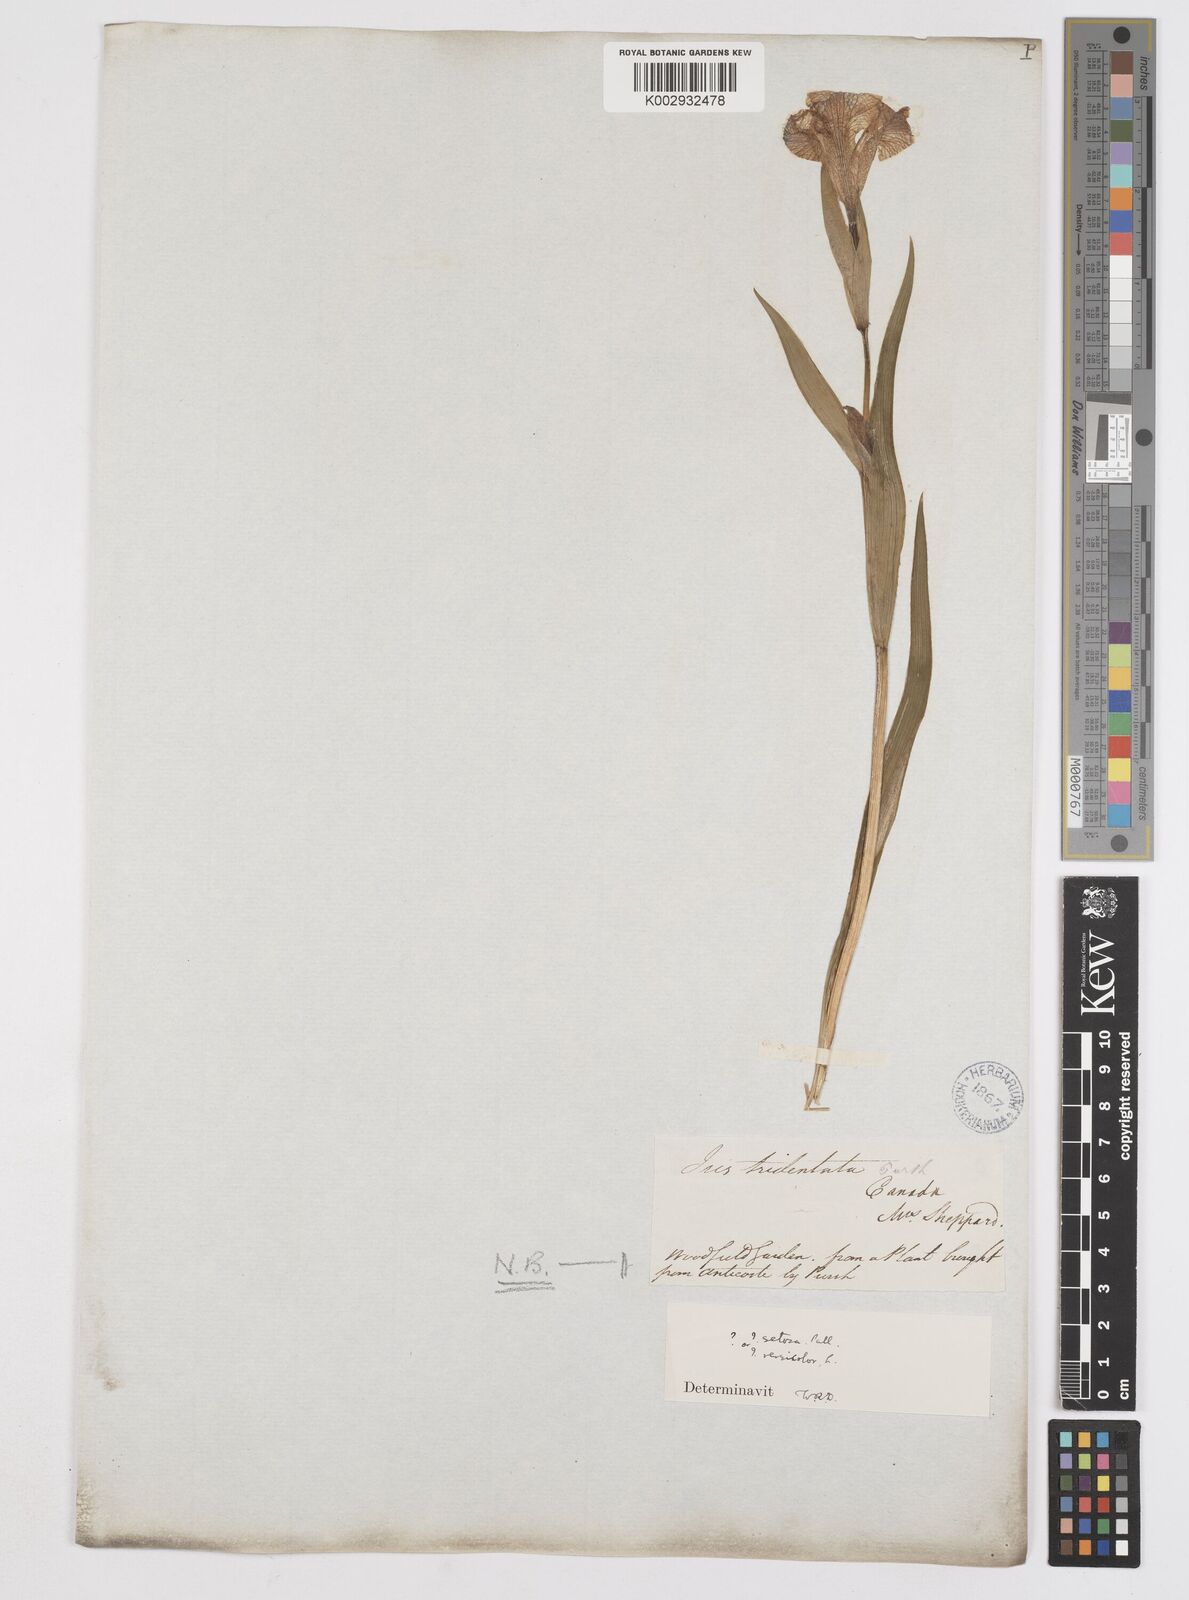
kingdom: Plantae
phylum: Tracheophyta
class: Liliopsida
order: Asparagales
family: Iridaceae
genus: Iris
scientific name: Iris tridentata
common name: Savannah iris
